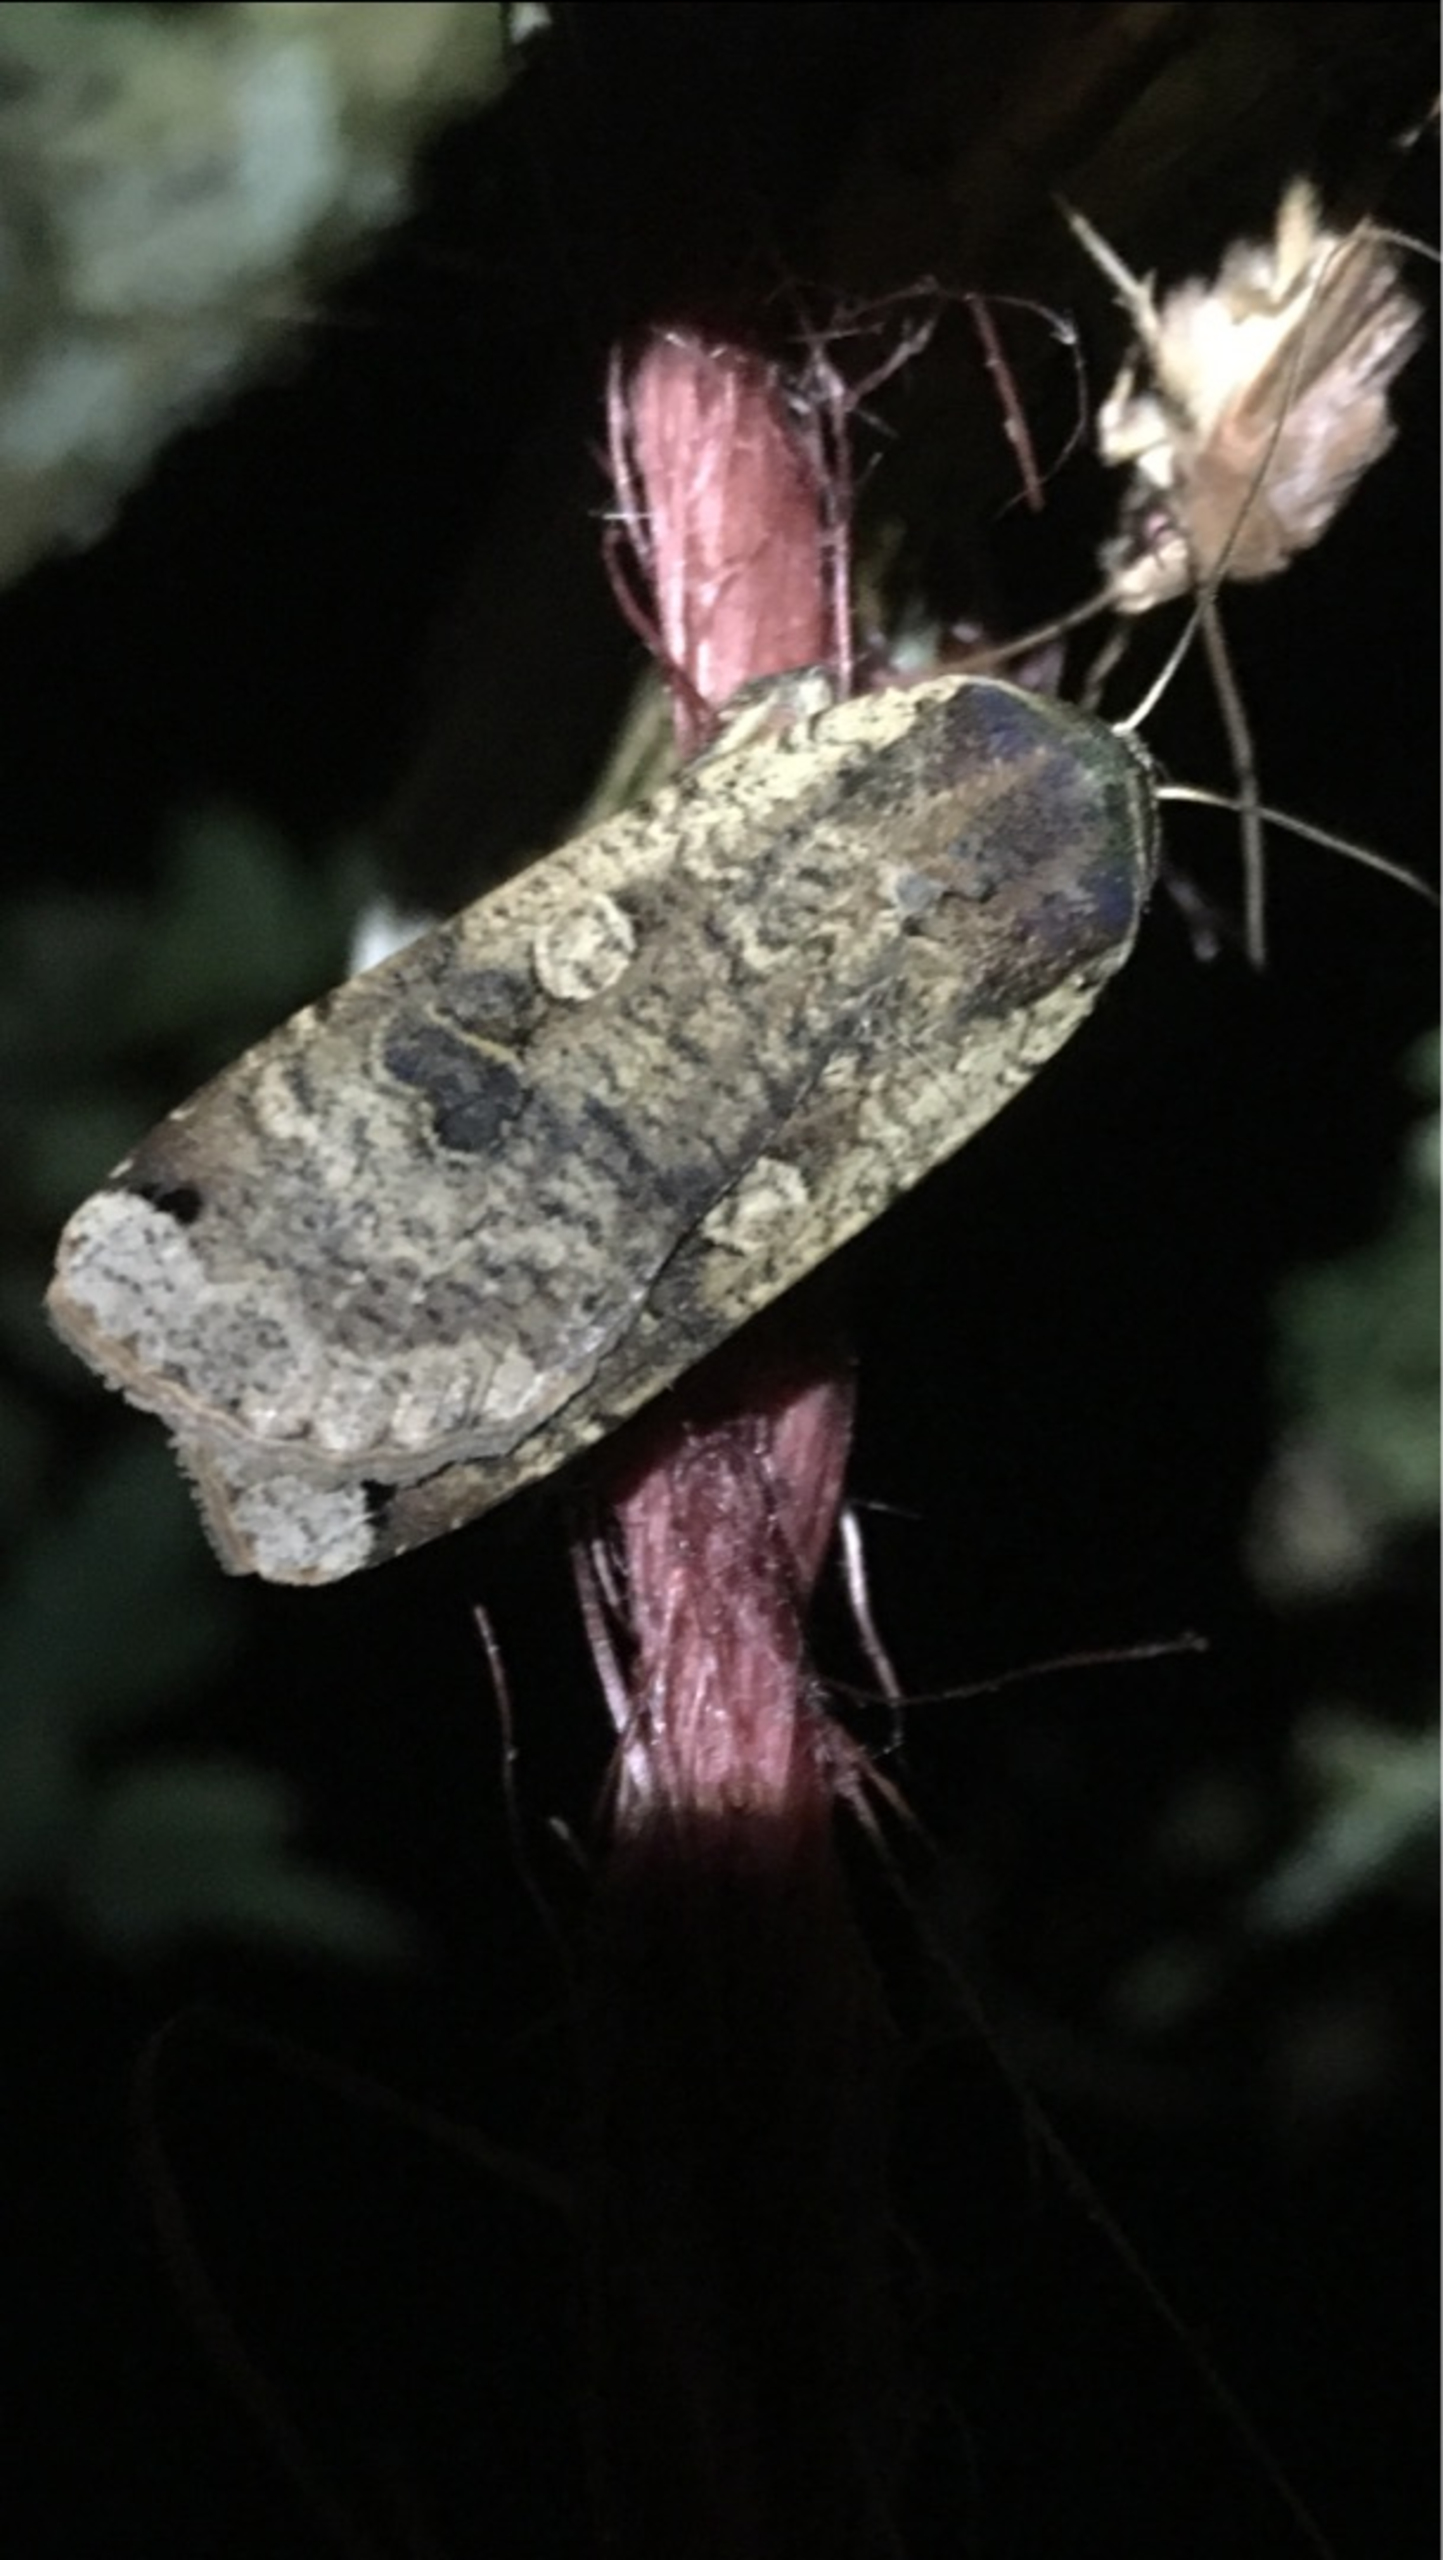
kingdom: Animalia
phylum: Arthropoda
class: Insecta
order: Lepidoptera
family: Noctuidae
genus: Noctua
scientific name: Noctua pronuba
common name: Stor smutugle
